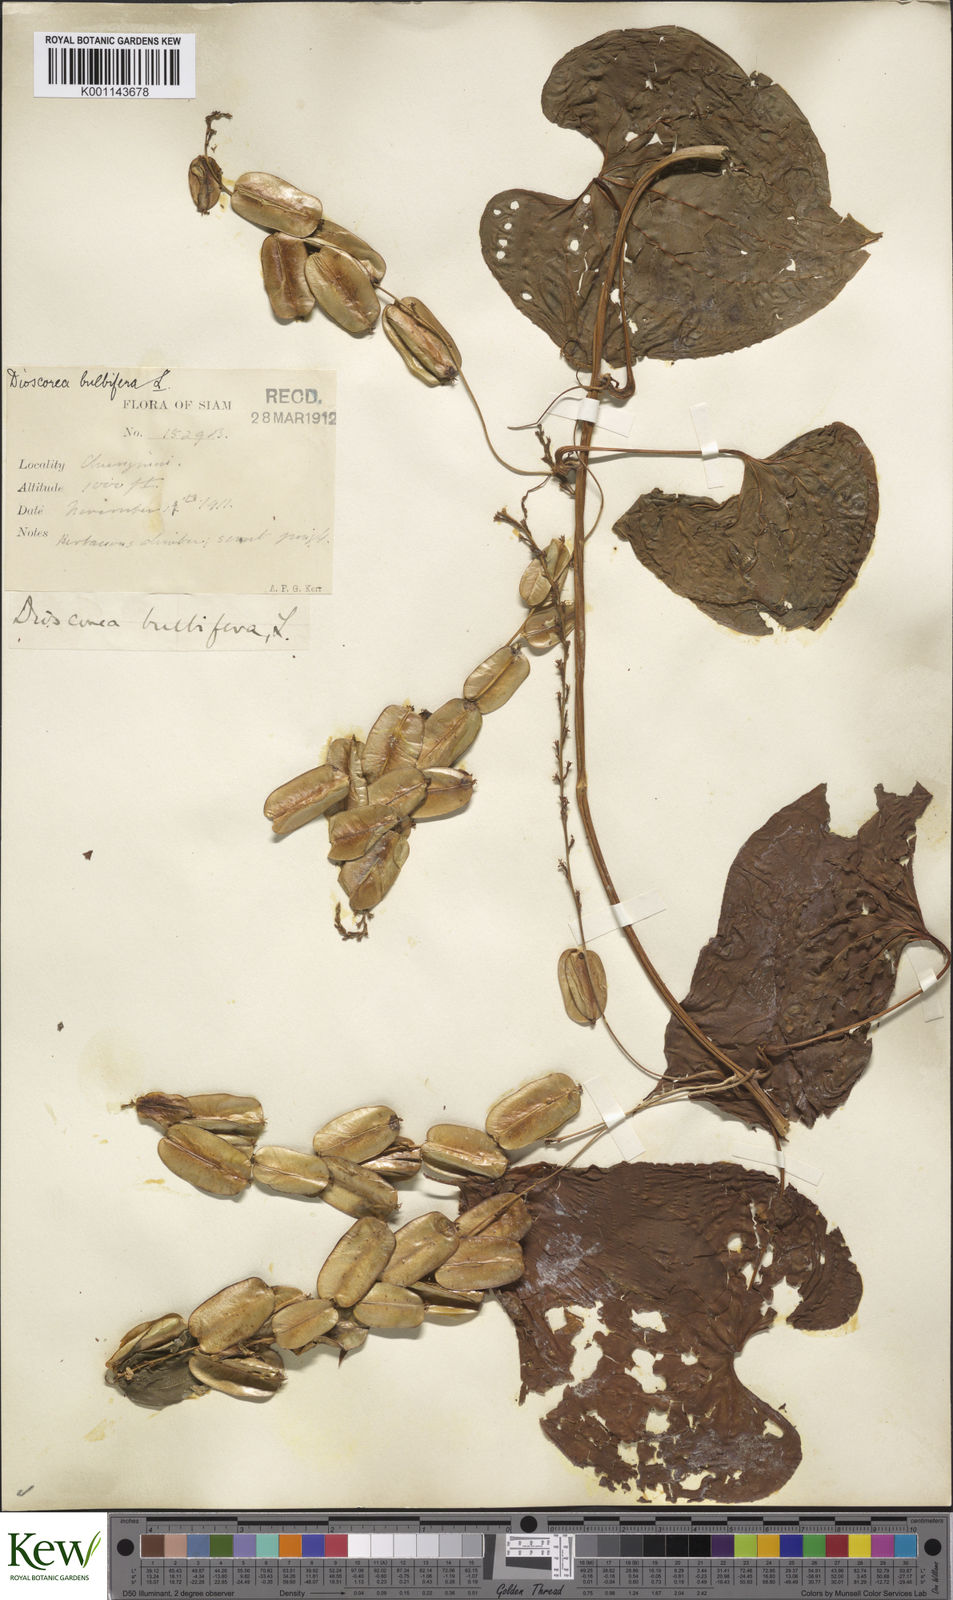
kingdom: Plantae
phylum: Tracheophyta
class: Liliopsida
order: Dioscoreales
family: Dioscoreaceae
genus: Dioscorea
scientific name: Dioscorea bulbifera
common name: Air yam
